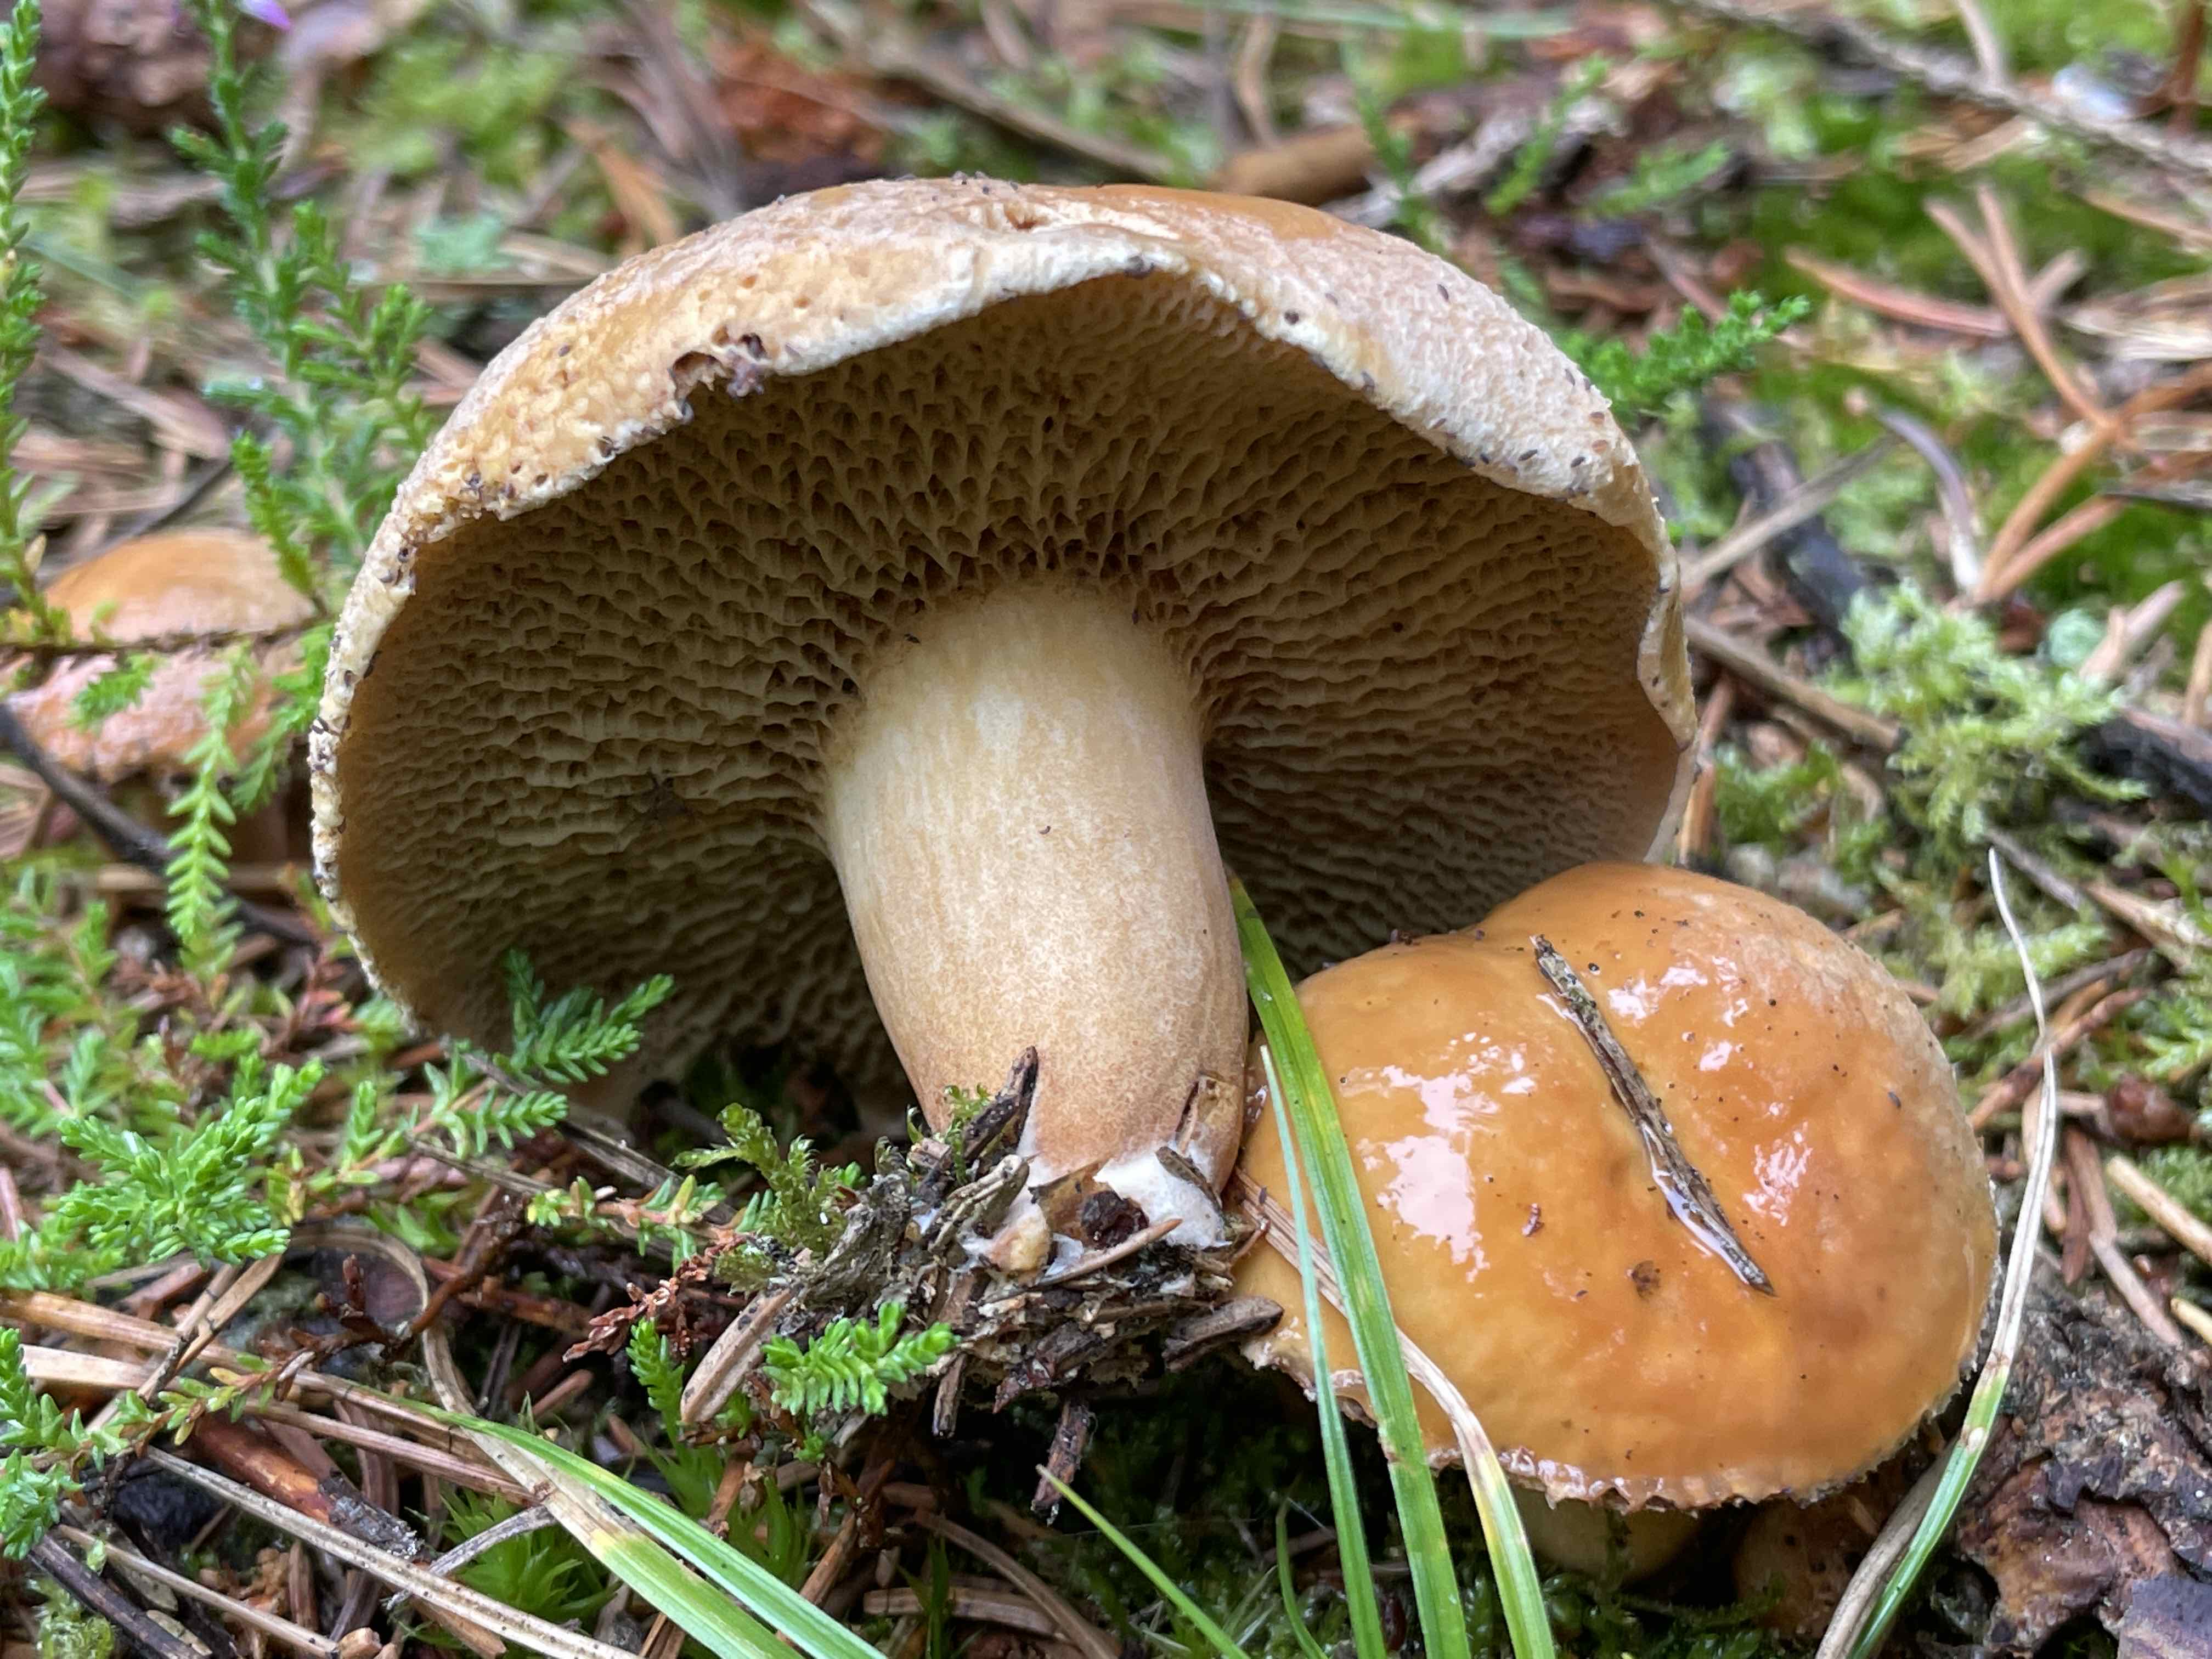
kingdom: Fungi
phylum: Basidiomycota
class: Agaricomycetes
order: Boletales
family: Suillaceae
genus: Suillus
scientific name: Suillus bovinus
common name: grovporet slimrørhat
